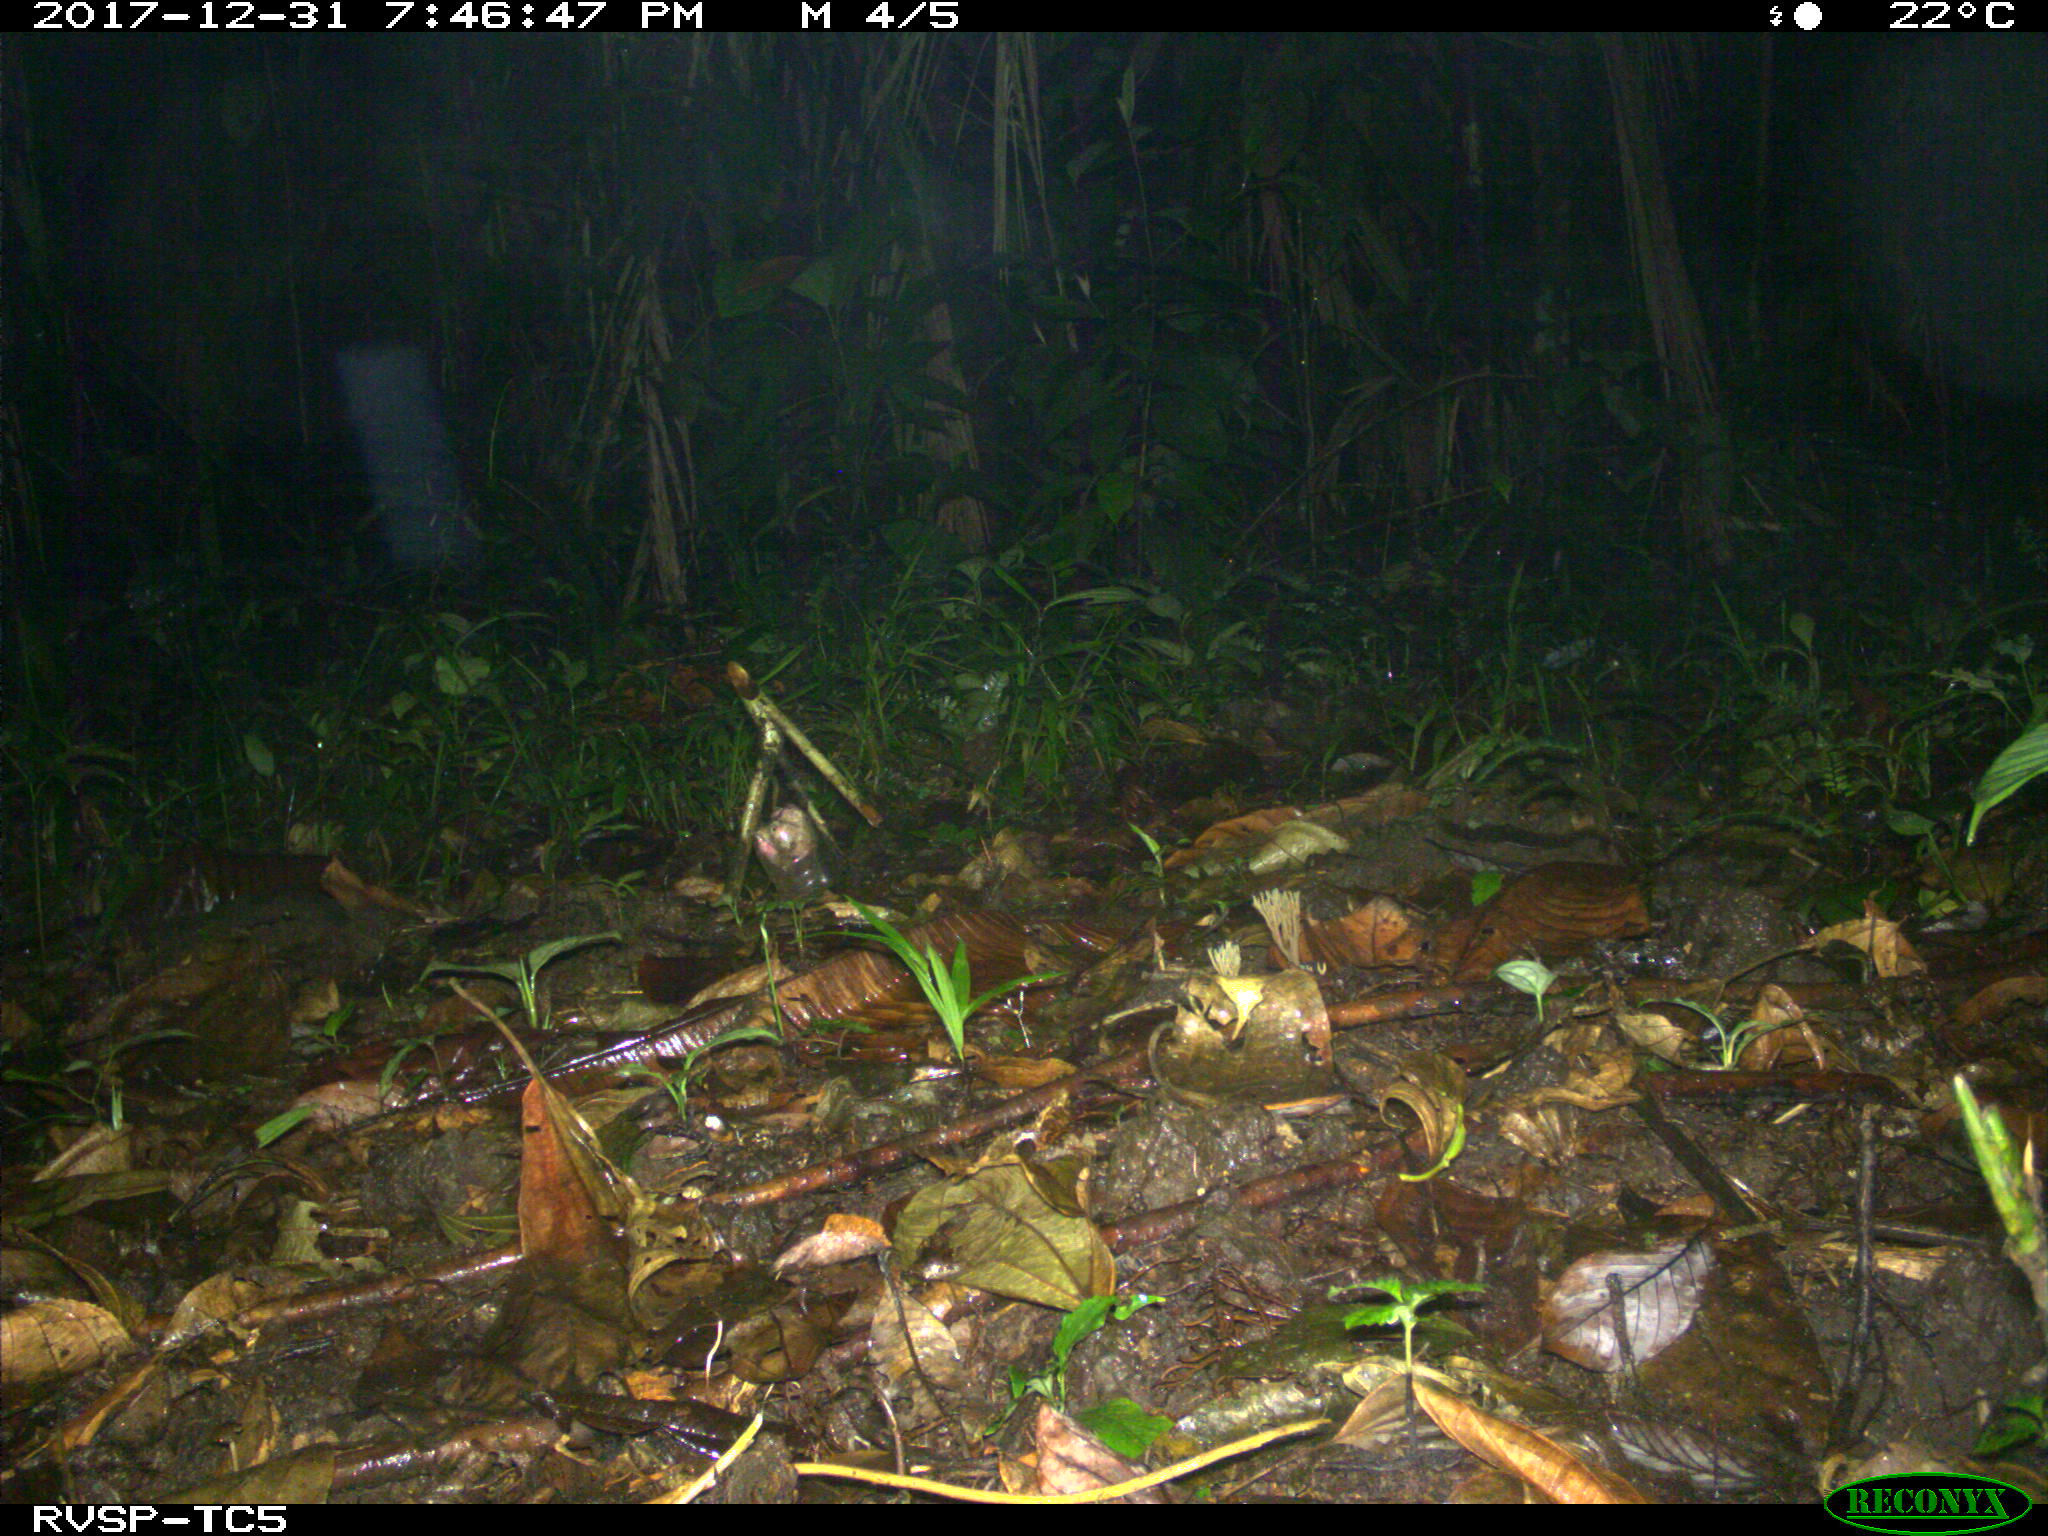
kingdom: Animalia
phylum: Chordata
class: Mammalia
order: Rodentia
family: Echimyidae
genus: Proechimys
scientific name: Proechimys
